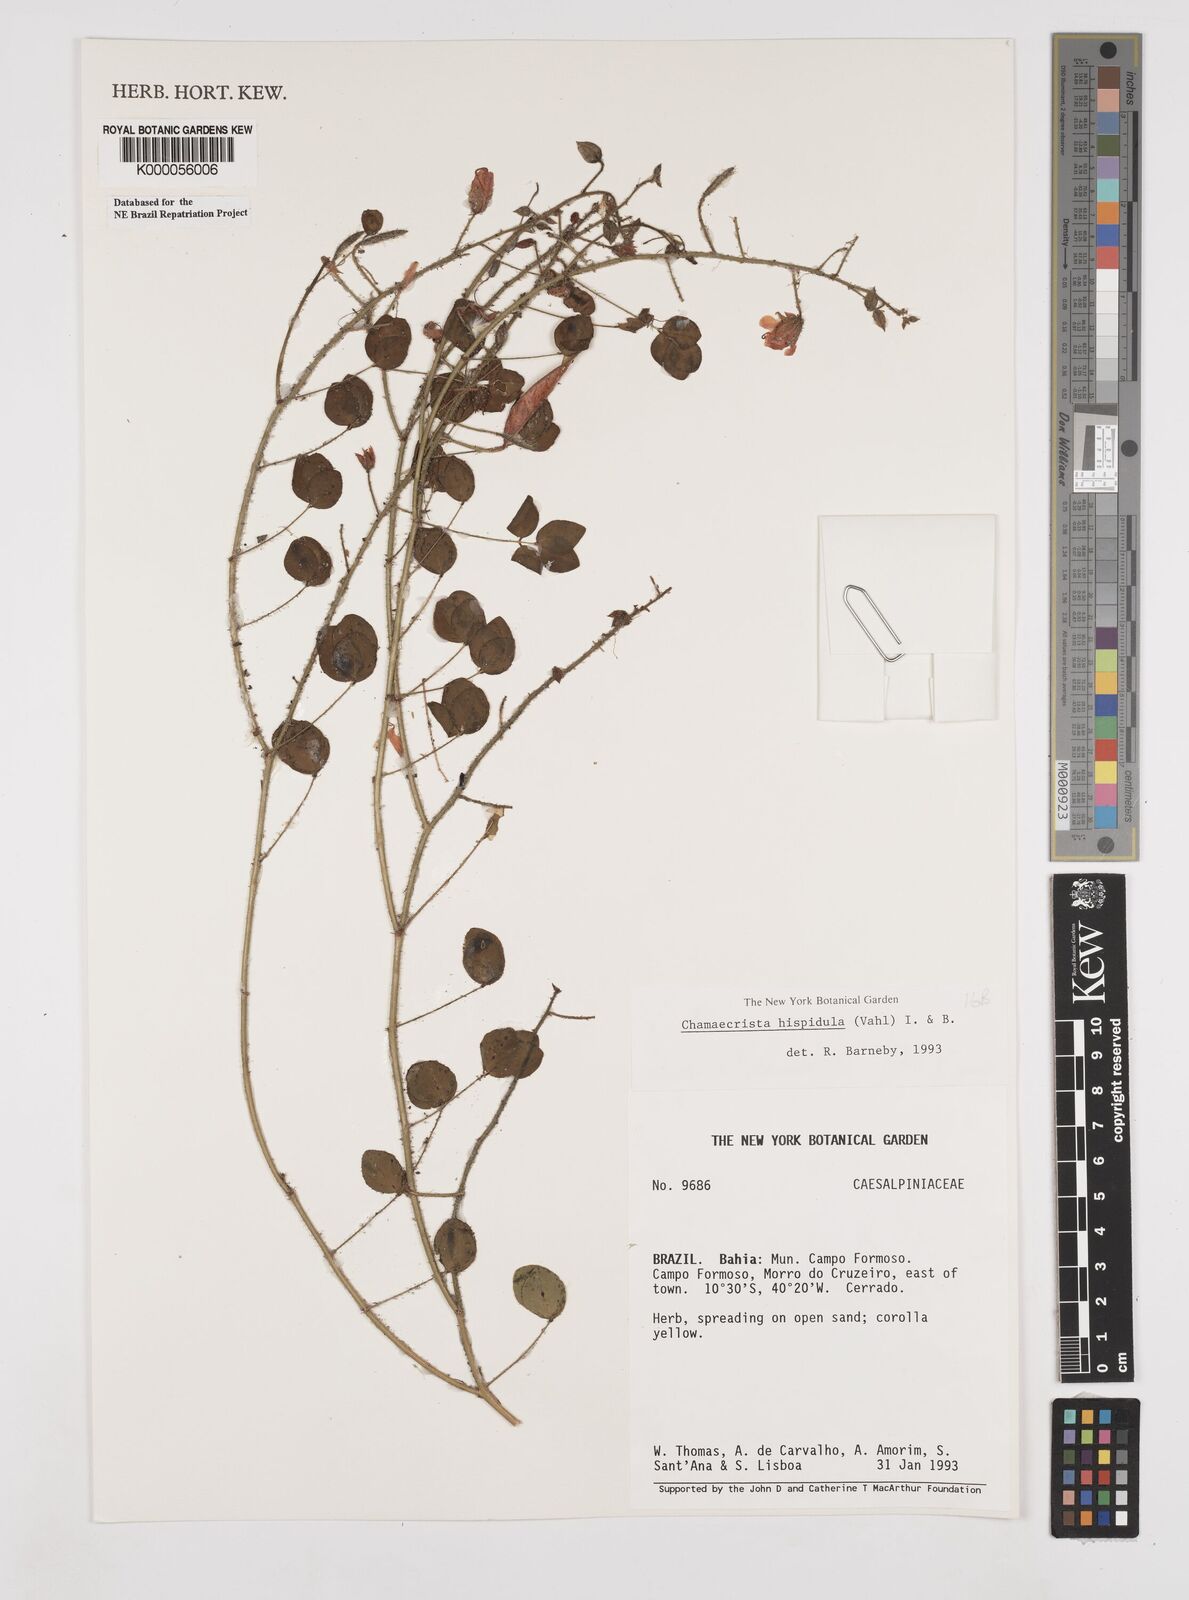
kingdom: Plantae
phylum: Tracheophyta
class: Magnoliopsida
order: Fabales
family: Fabaceae
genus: Chamaecrista
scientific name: Chamaecrista hispidula
